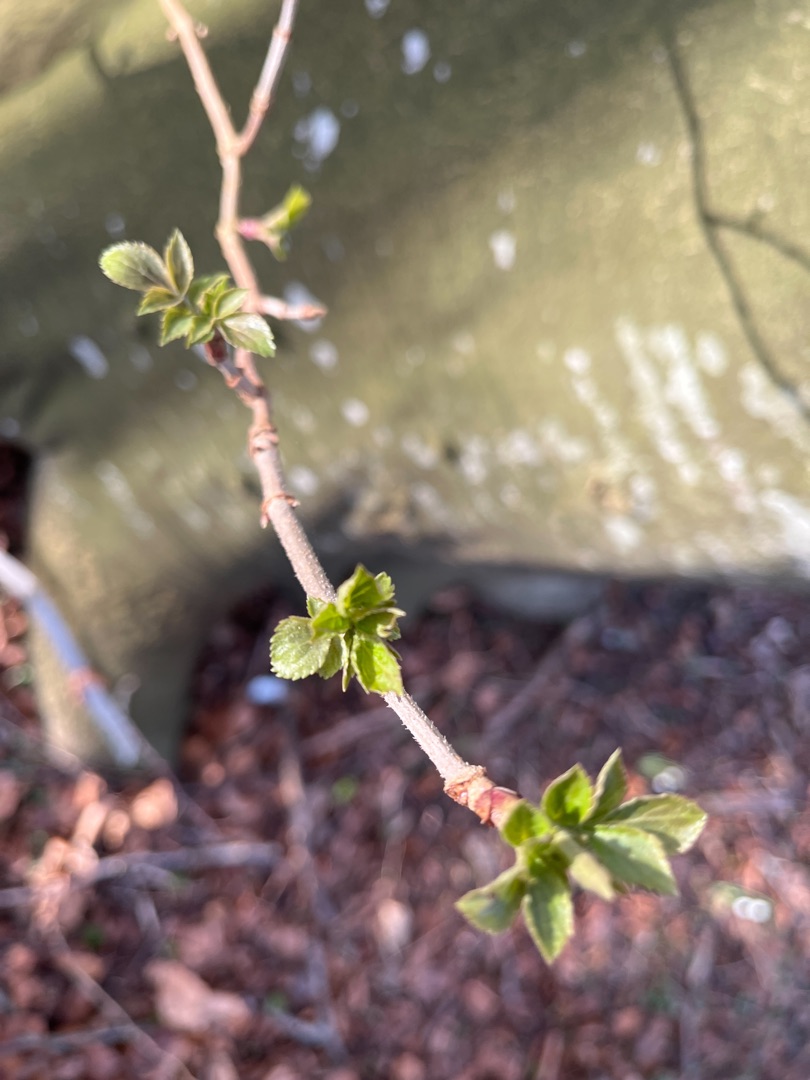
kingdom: Plantae
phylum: Tracheophyta
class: Magnoliopsida
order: Dipsacales
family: Viburnaceae
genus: Sambucus
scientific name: Sambucus nigra
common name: Almindelig hyld
